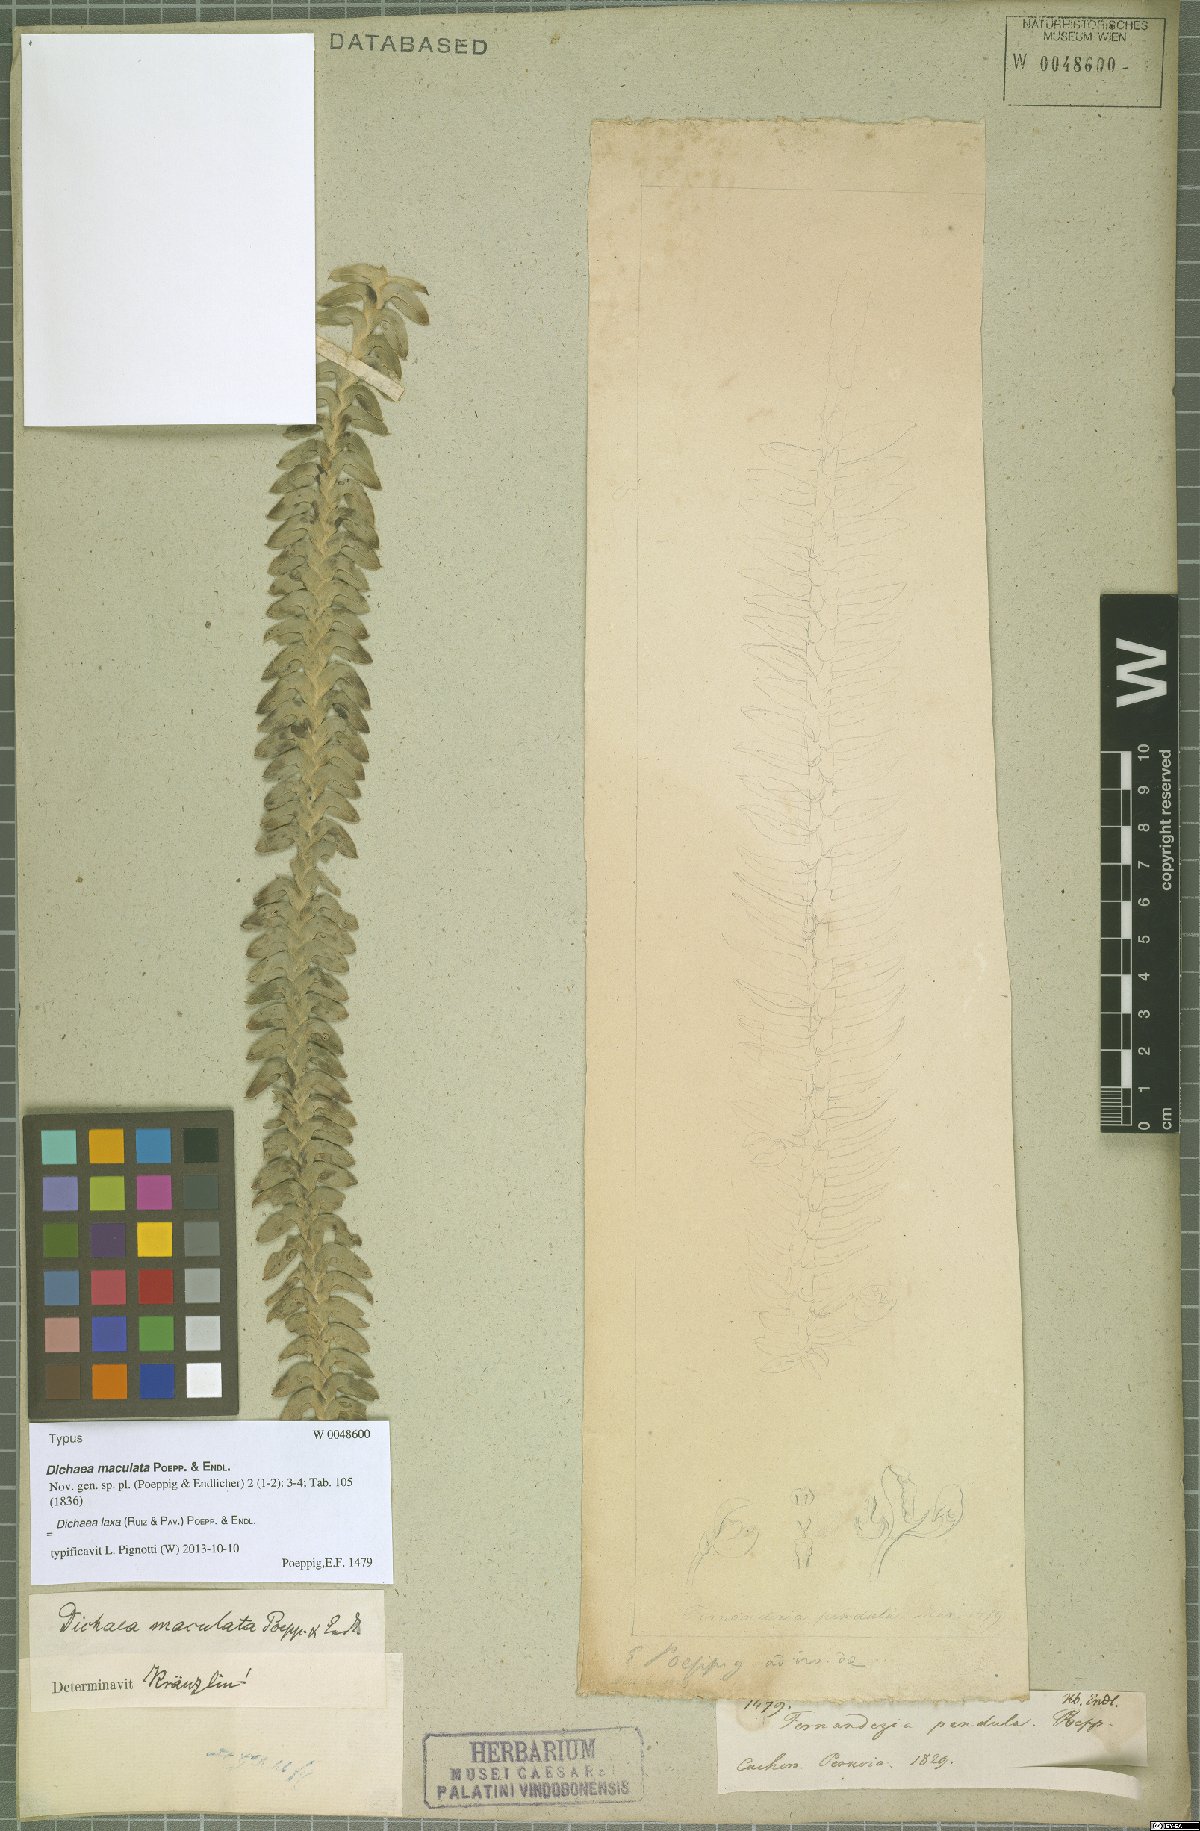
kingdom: Plantae
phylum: Tracheophyta
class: Liliopsida
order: Asparagales
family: Orchidaceae
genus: Dichaea
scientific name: Dichaea laxa
